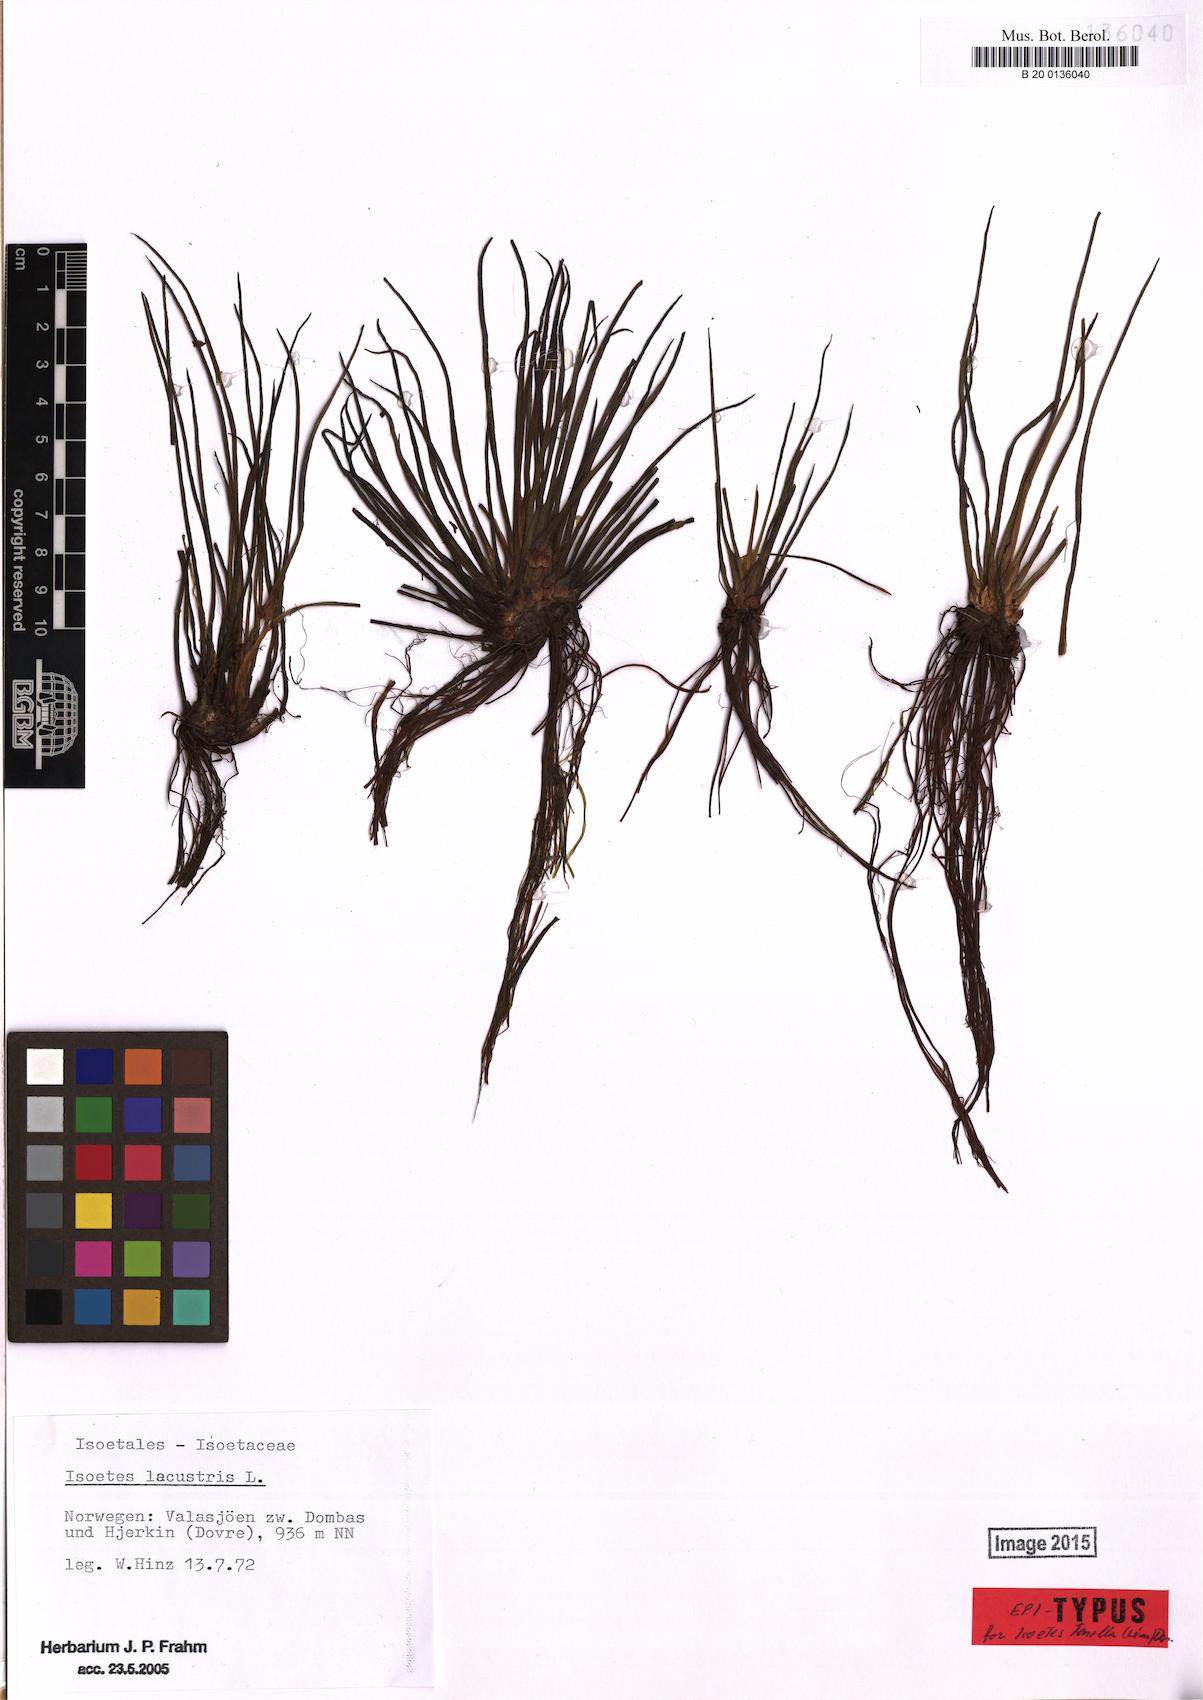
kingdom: Plantae
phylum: Tracheophyta
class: Lycopodiopsida
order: Isoetales
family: Isoetaceae
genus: Isoetes
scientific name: Isoetes lacustris
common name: Common quillwort
